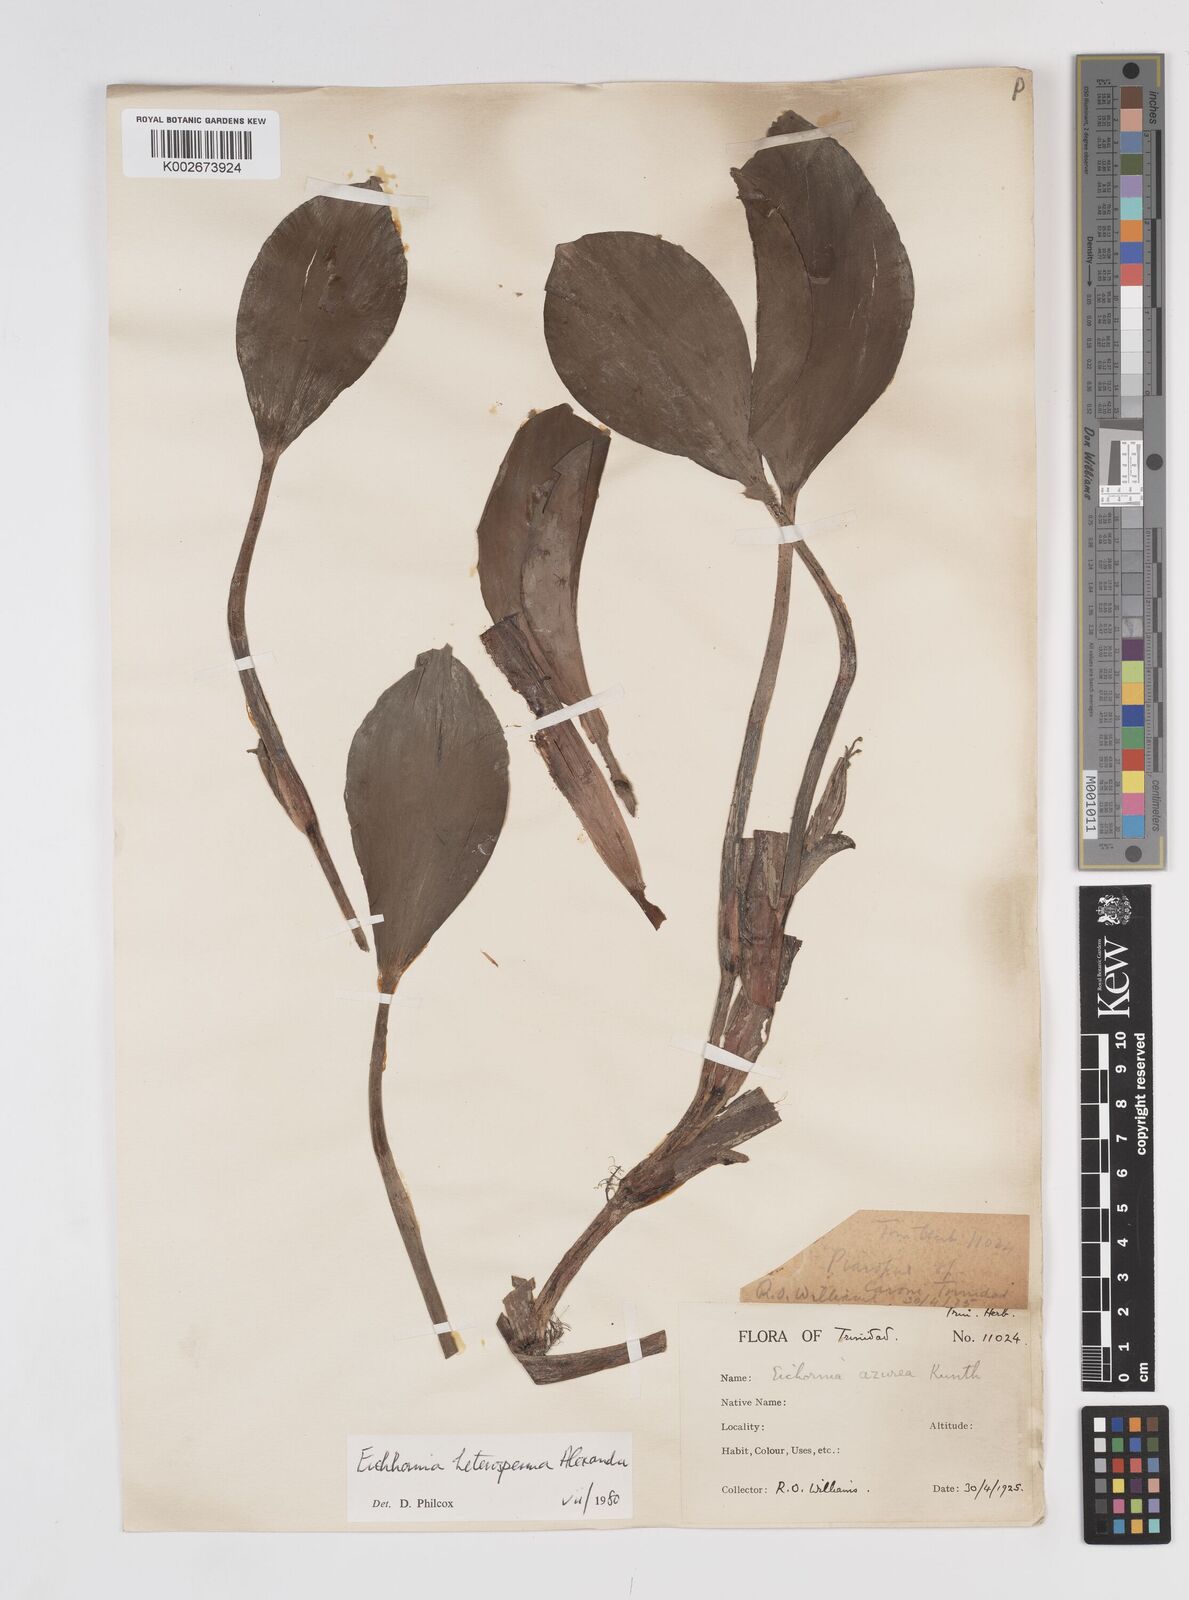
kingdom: Plantae
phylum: Tracheophyta
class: Liliopsida
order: Commelinales
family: Pontederiaceae
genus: Pontederia
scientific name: Pontederia heterosperma
